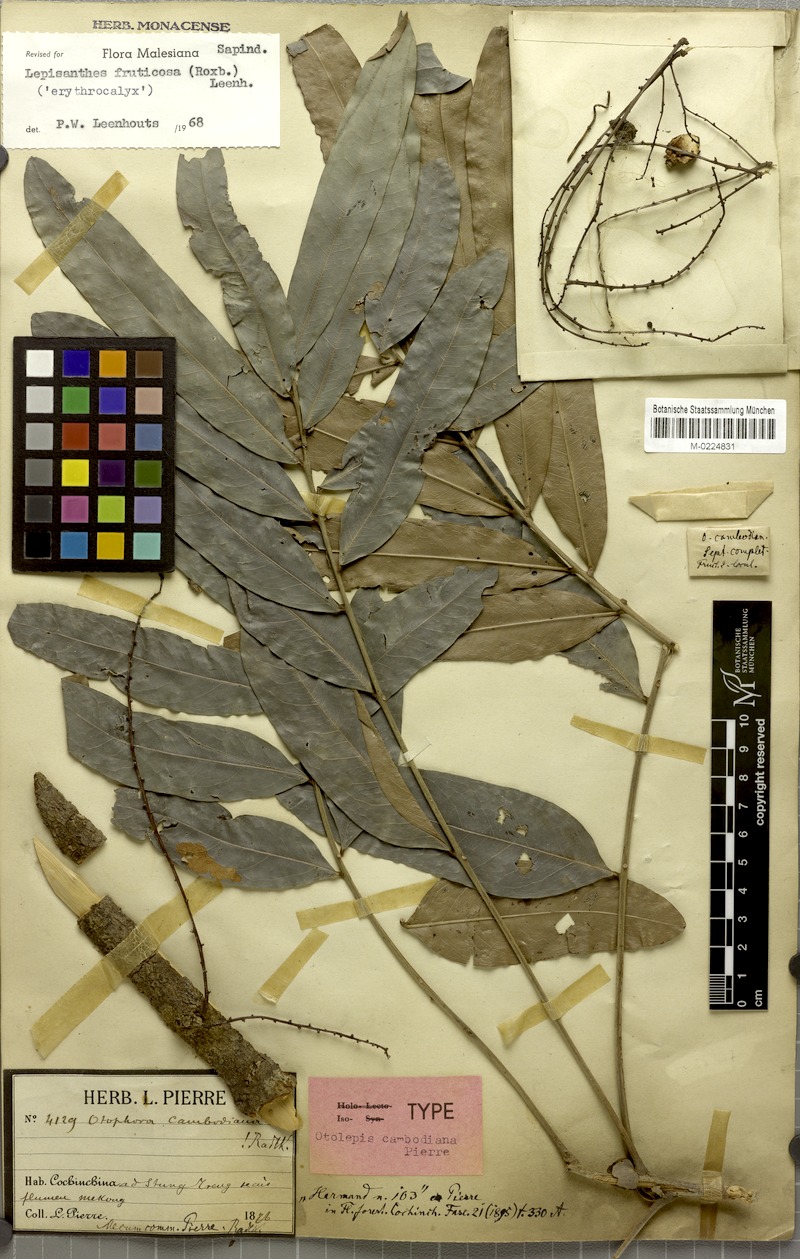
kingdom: Plantae
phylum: Tracheophyta
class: Magnoliopsida
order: Sapindales
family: Sapindaceae
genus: Lepisanthes
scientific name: Lepisanthes fruticosa
